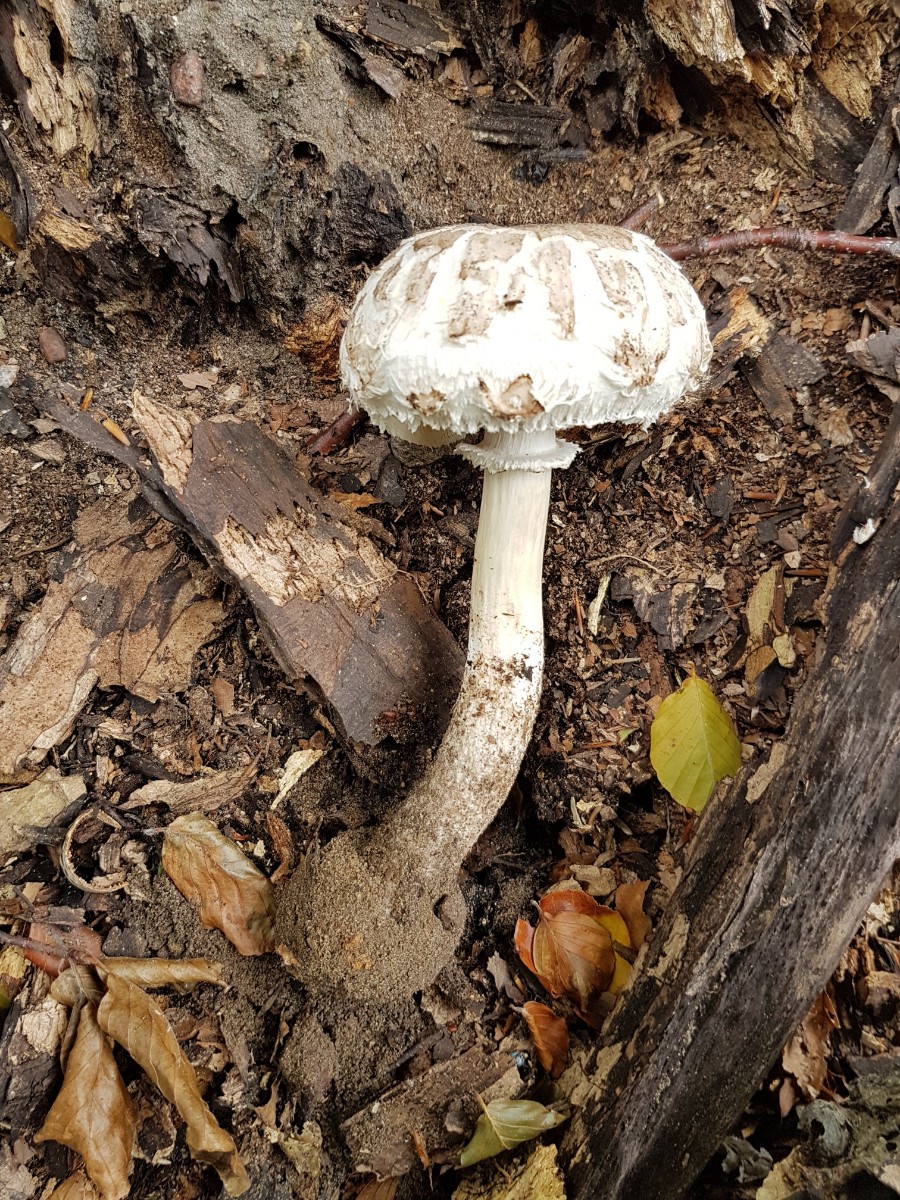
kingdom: Fungi
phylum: Basidiomycota
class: Agaricomycetes
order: Agaricales
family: Agaricaceae
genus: Chlorophyllum
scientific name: Chlorophyllum brunneum
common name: giftig rabarberhat
